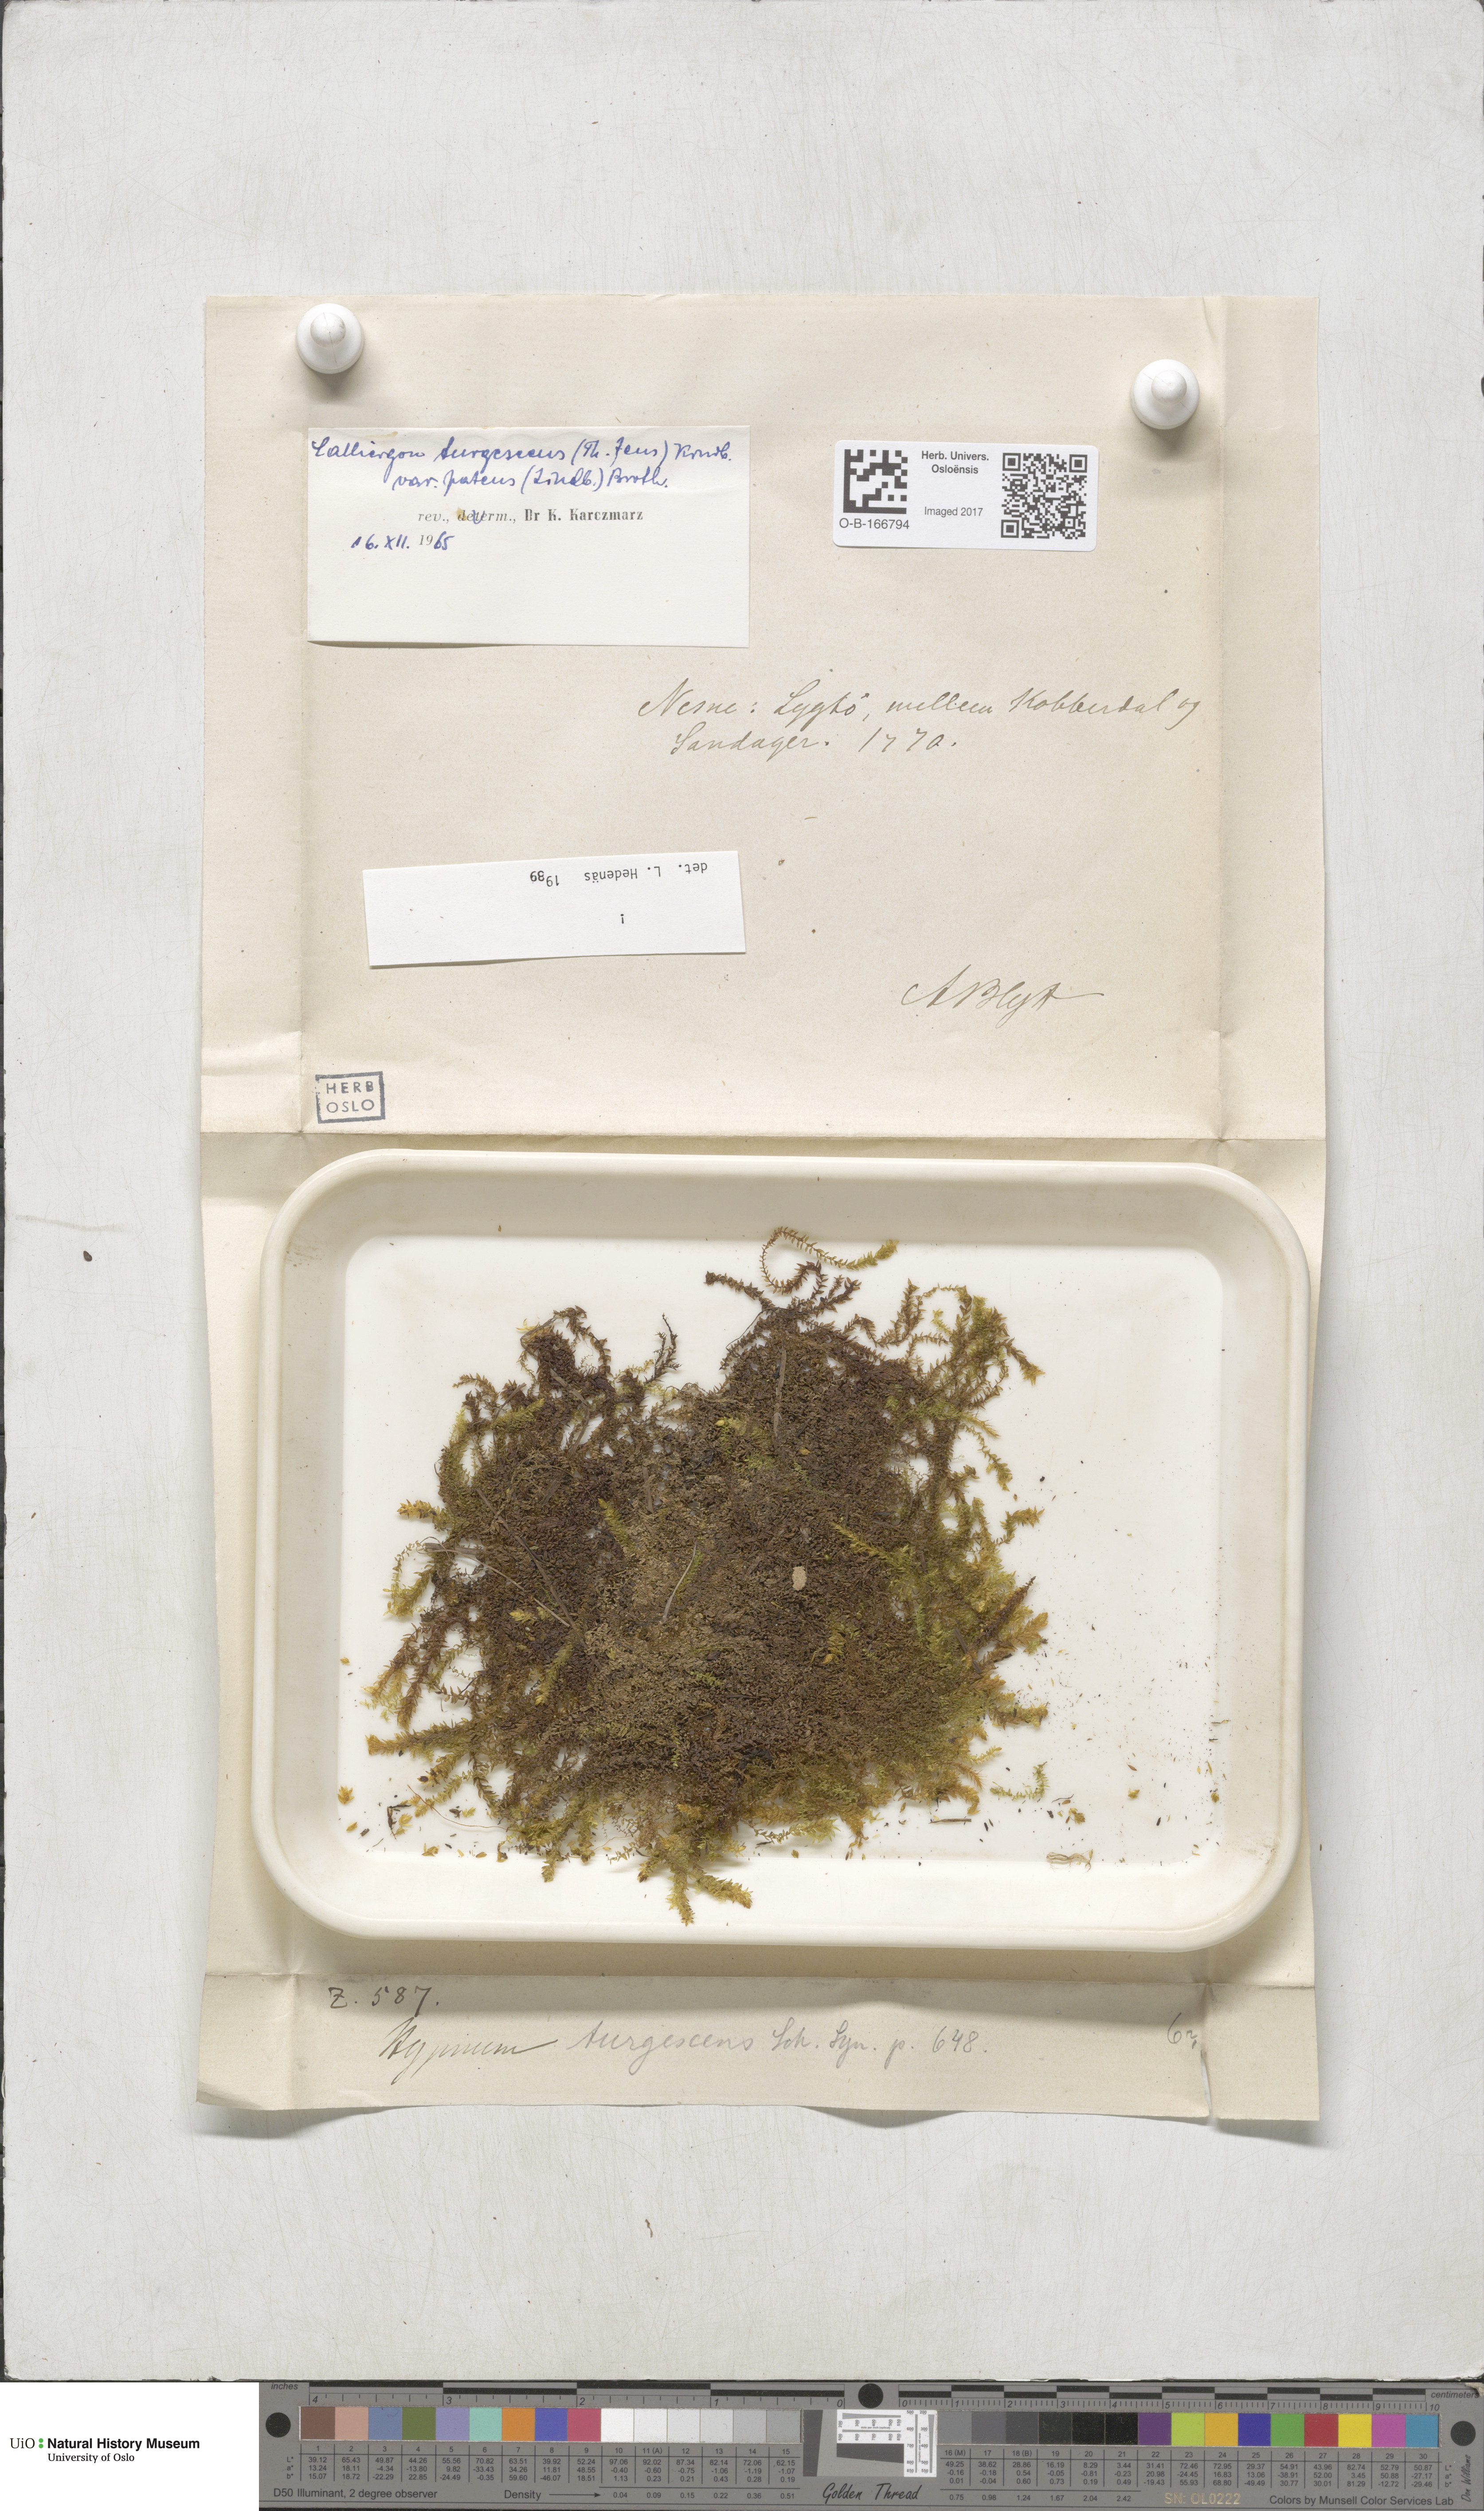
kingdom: Plantae
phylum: Bryophyta
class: Bryopsida
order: Hypnales
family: Amblystegiaceae
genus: Drepanocladus
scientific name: Drepanocladus turgescens
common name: Large yellow feather-moss
